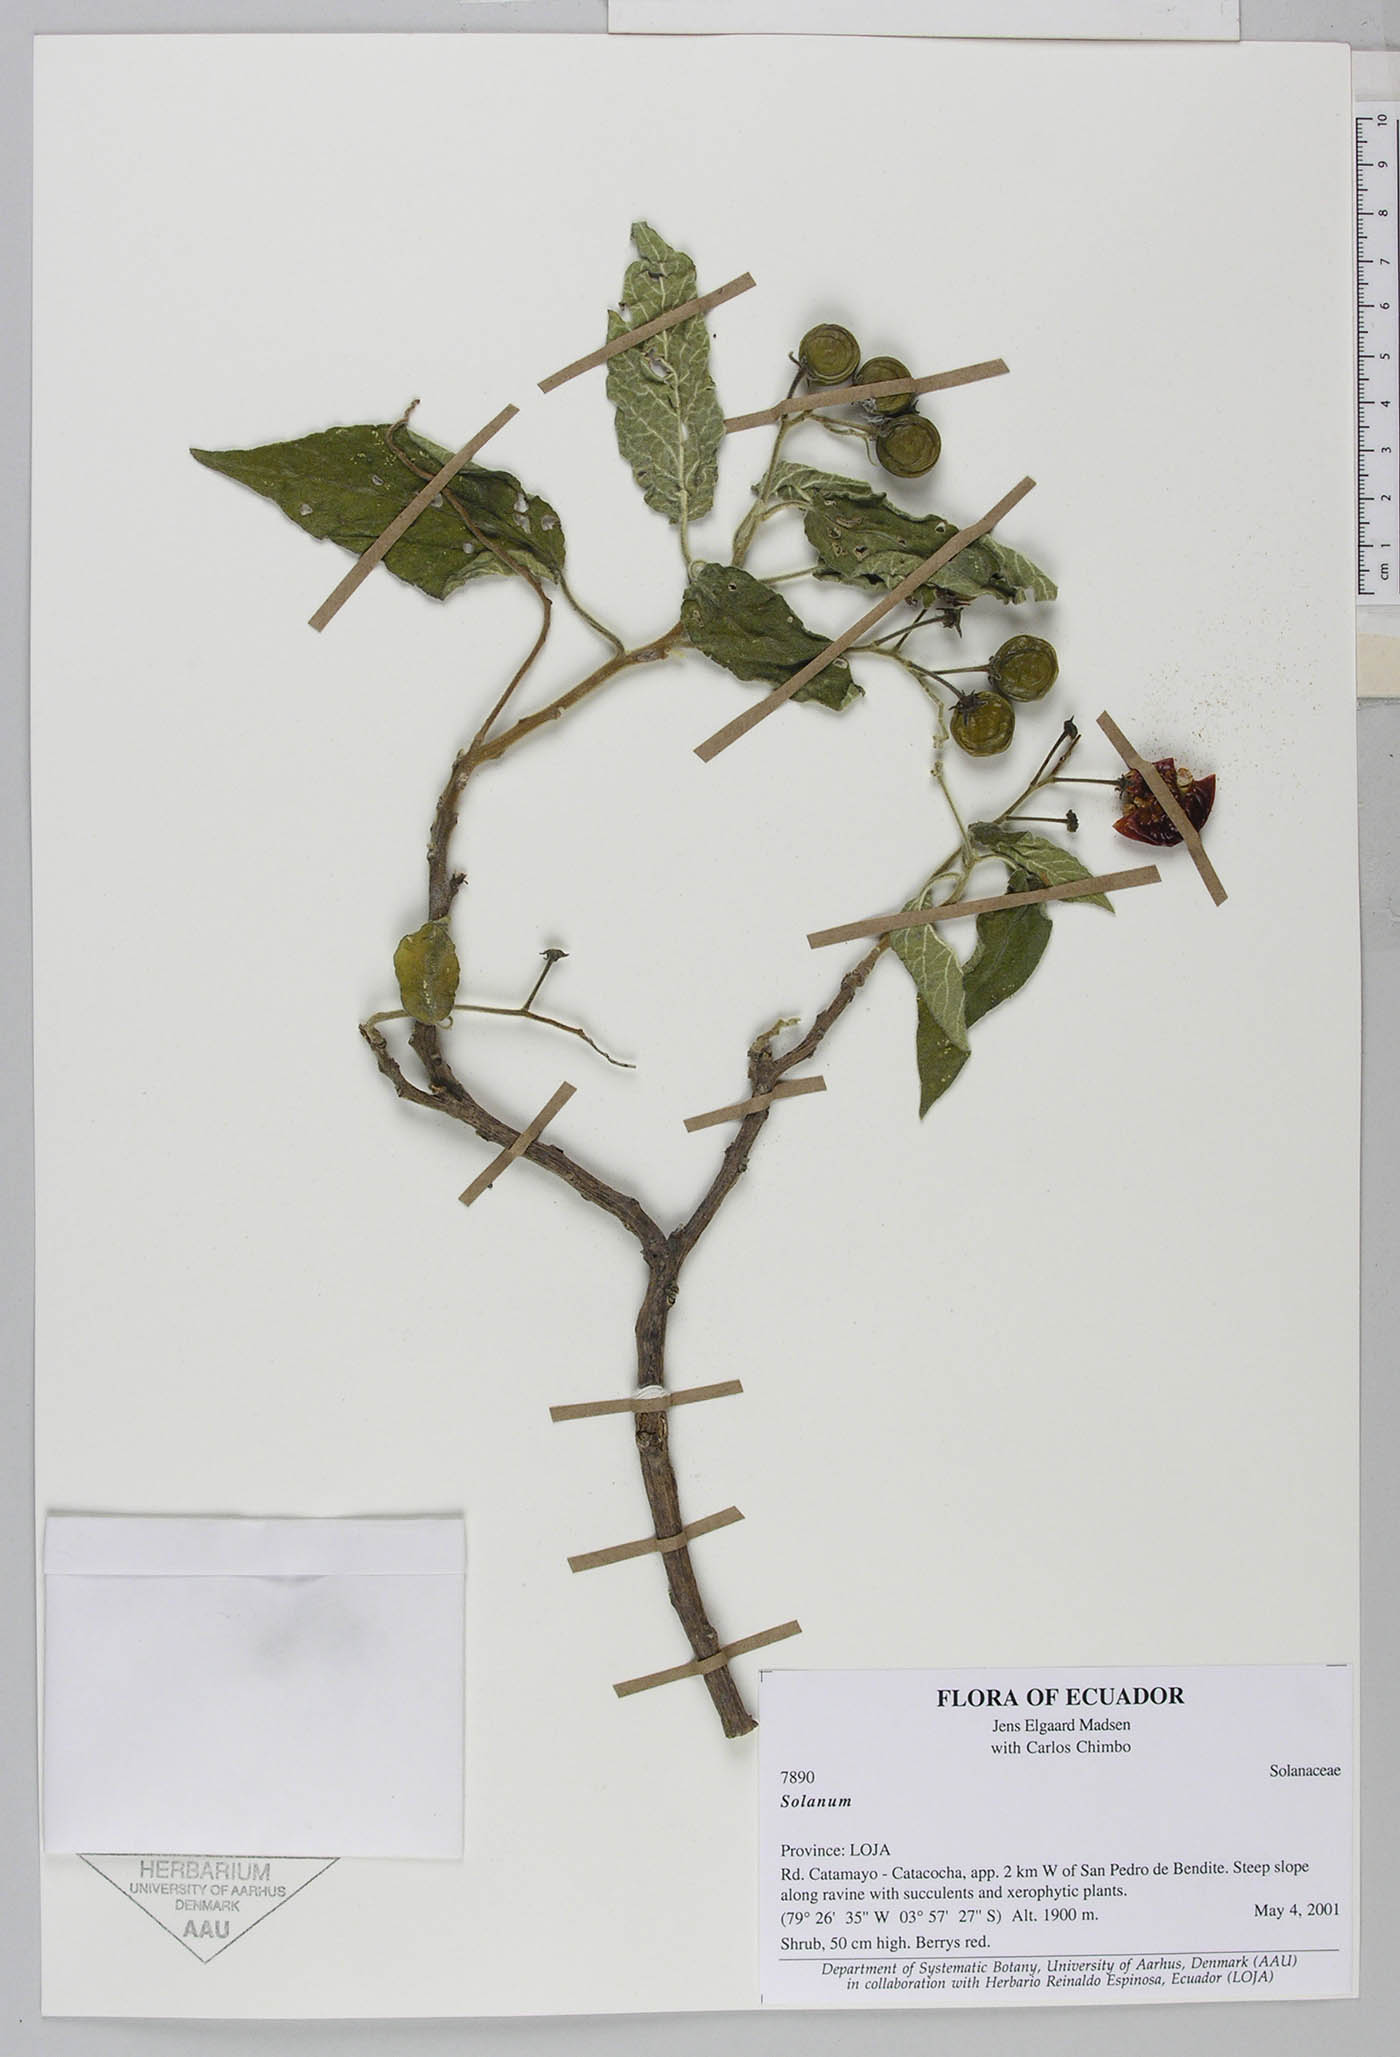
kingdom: Plantae
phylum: Tracheophyta
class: Magnoliopsida
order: Solanales
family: Solanaceae
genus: Solanum
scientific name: Solanum amotapense
